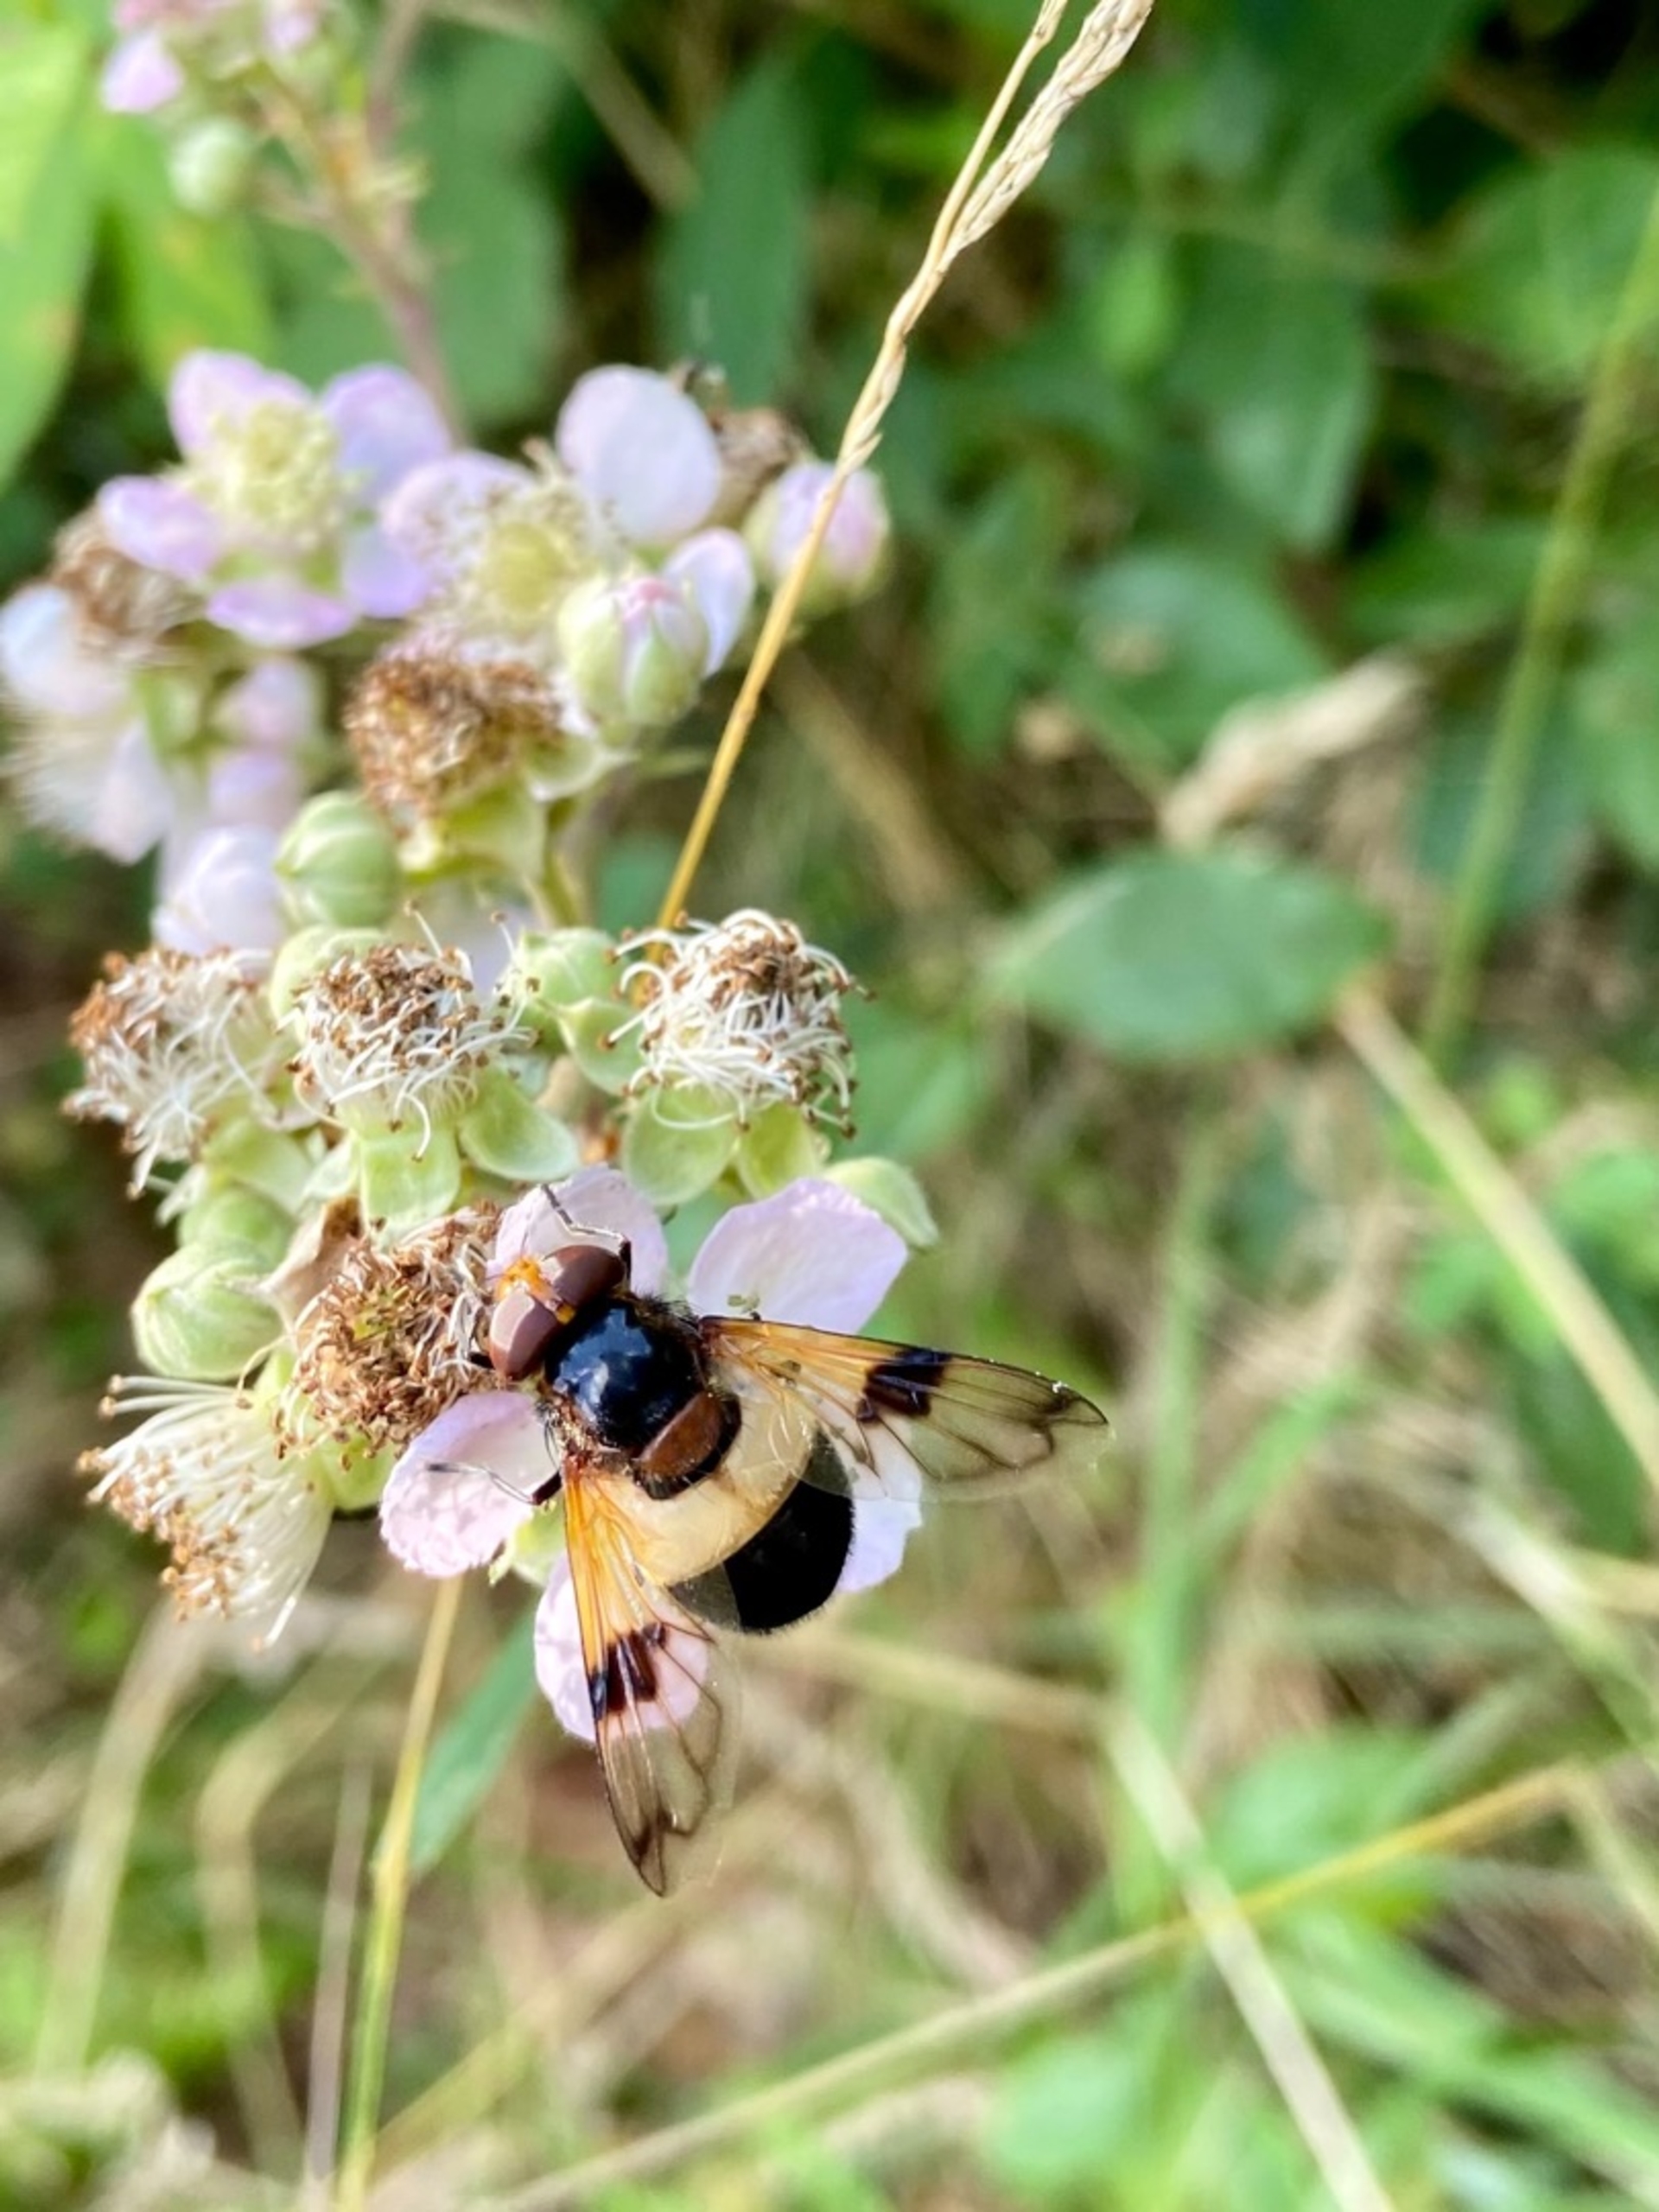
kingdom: Animalia
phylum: Arthropoda
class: Insecta
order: Diptera
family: Syrphidae
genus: Volucella
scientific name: Volucella pellucens
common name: Hvidbåndet humlesvirreflue
